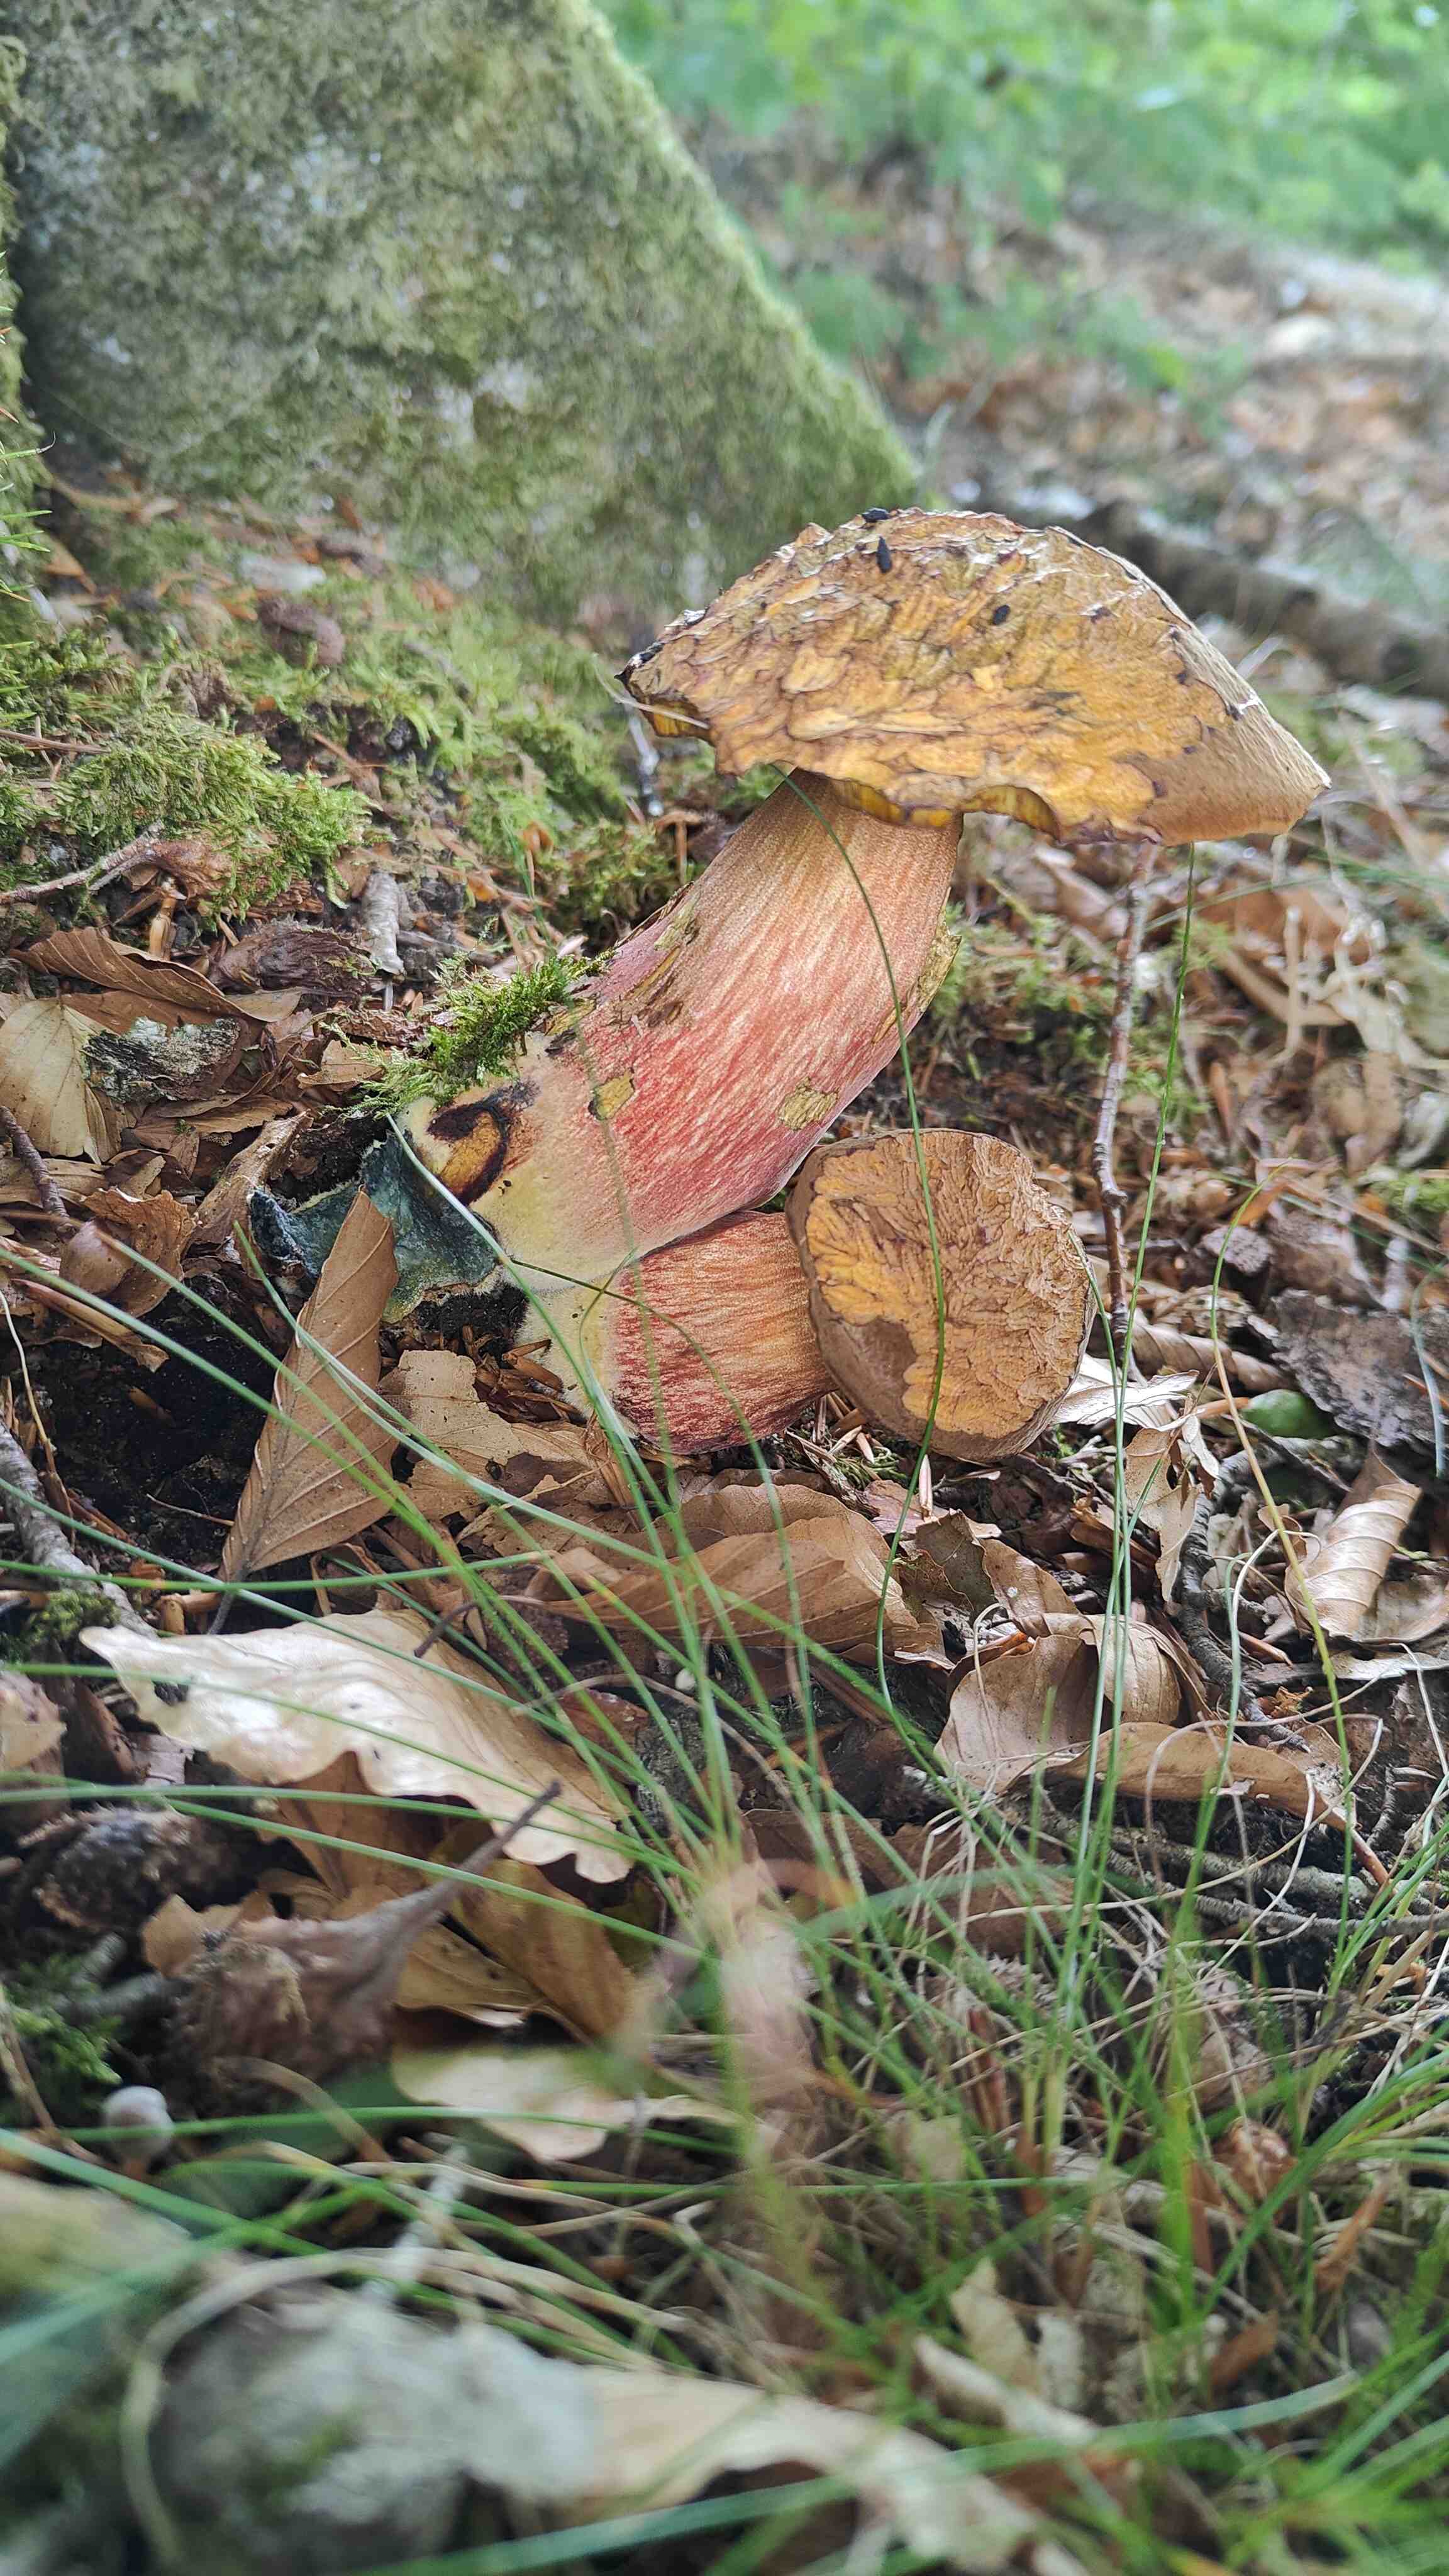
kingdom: Fungi
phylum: Basidiomycota
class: Agaricomycetes
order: Boletales
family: Boletaceae
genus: Neoboletus
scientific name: Neoboletus erythropus
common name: punktstokket indigorørhat
